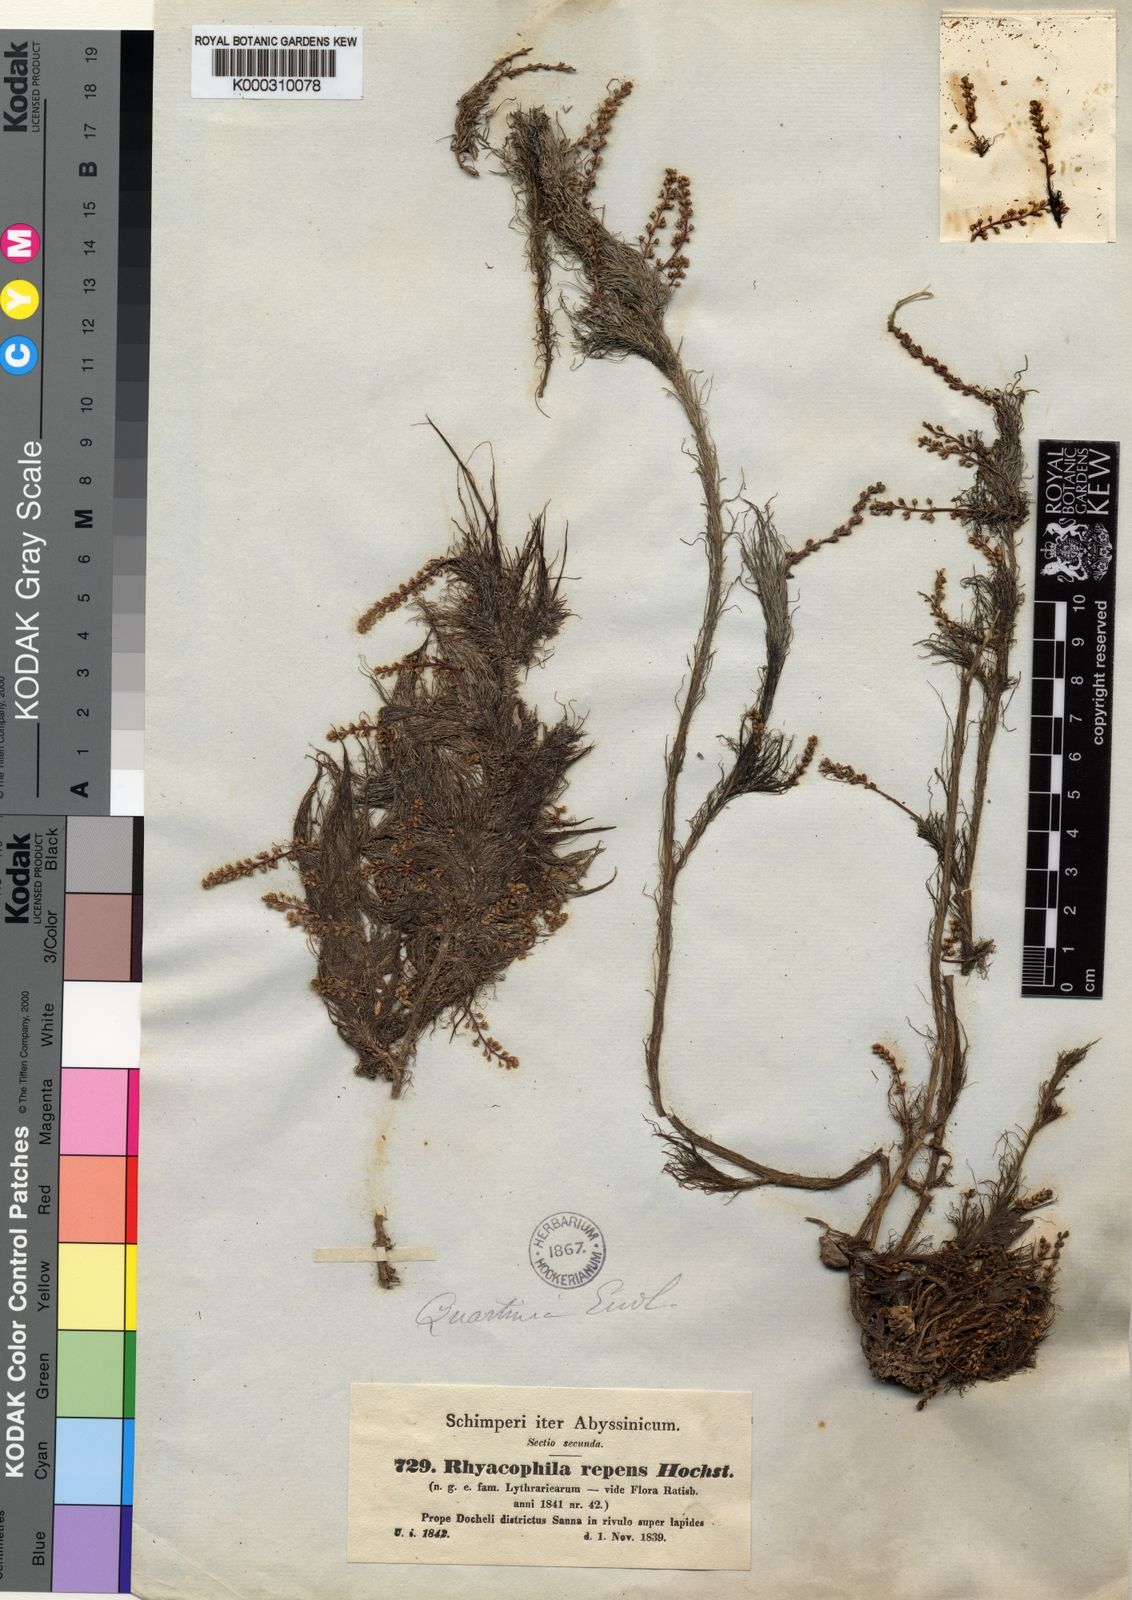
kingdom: Plantae
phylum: Tracheophyta
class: Magnoliopsida
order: Myrtales
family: Lythraceae
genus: Rotala
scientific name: Rotala repens
